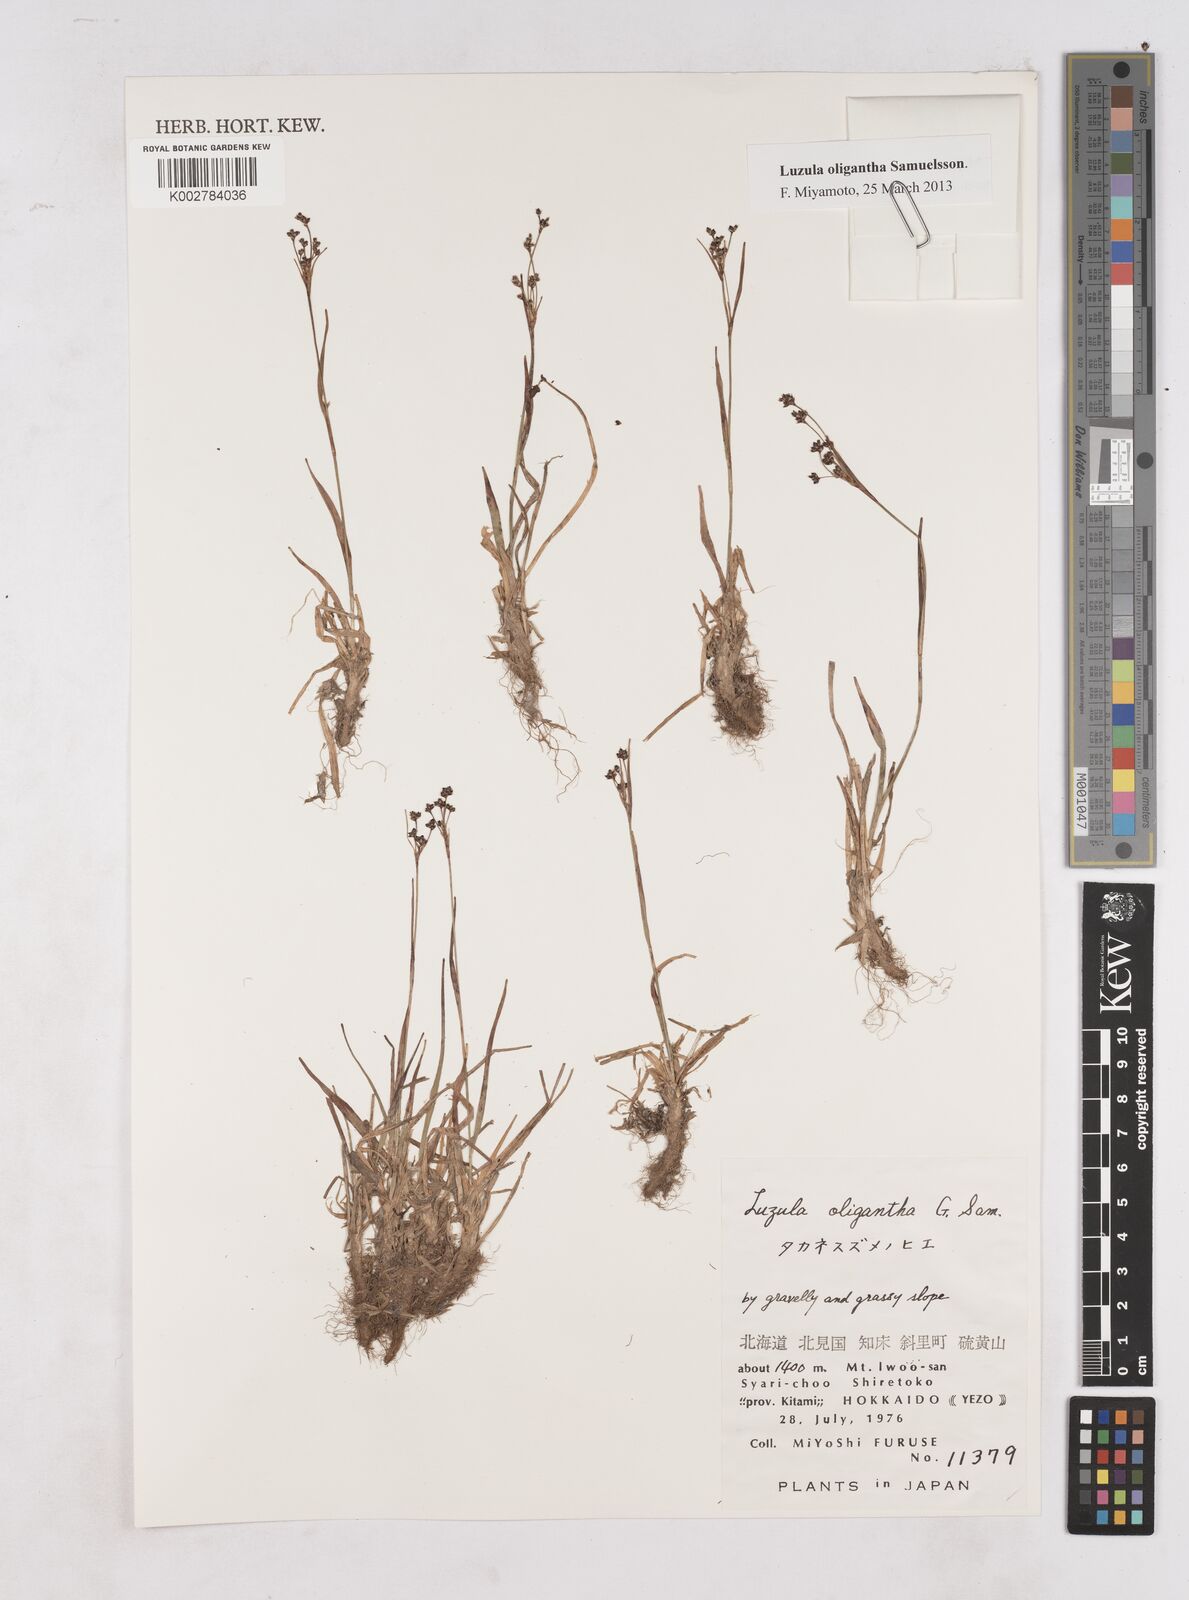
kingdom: Plantae
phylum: Tracheophyta
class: Liliopsida
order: Poales
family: Juncaceae
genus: Luzula
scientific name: Luzula oligantha
